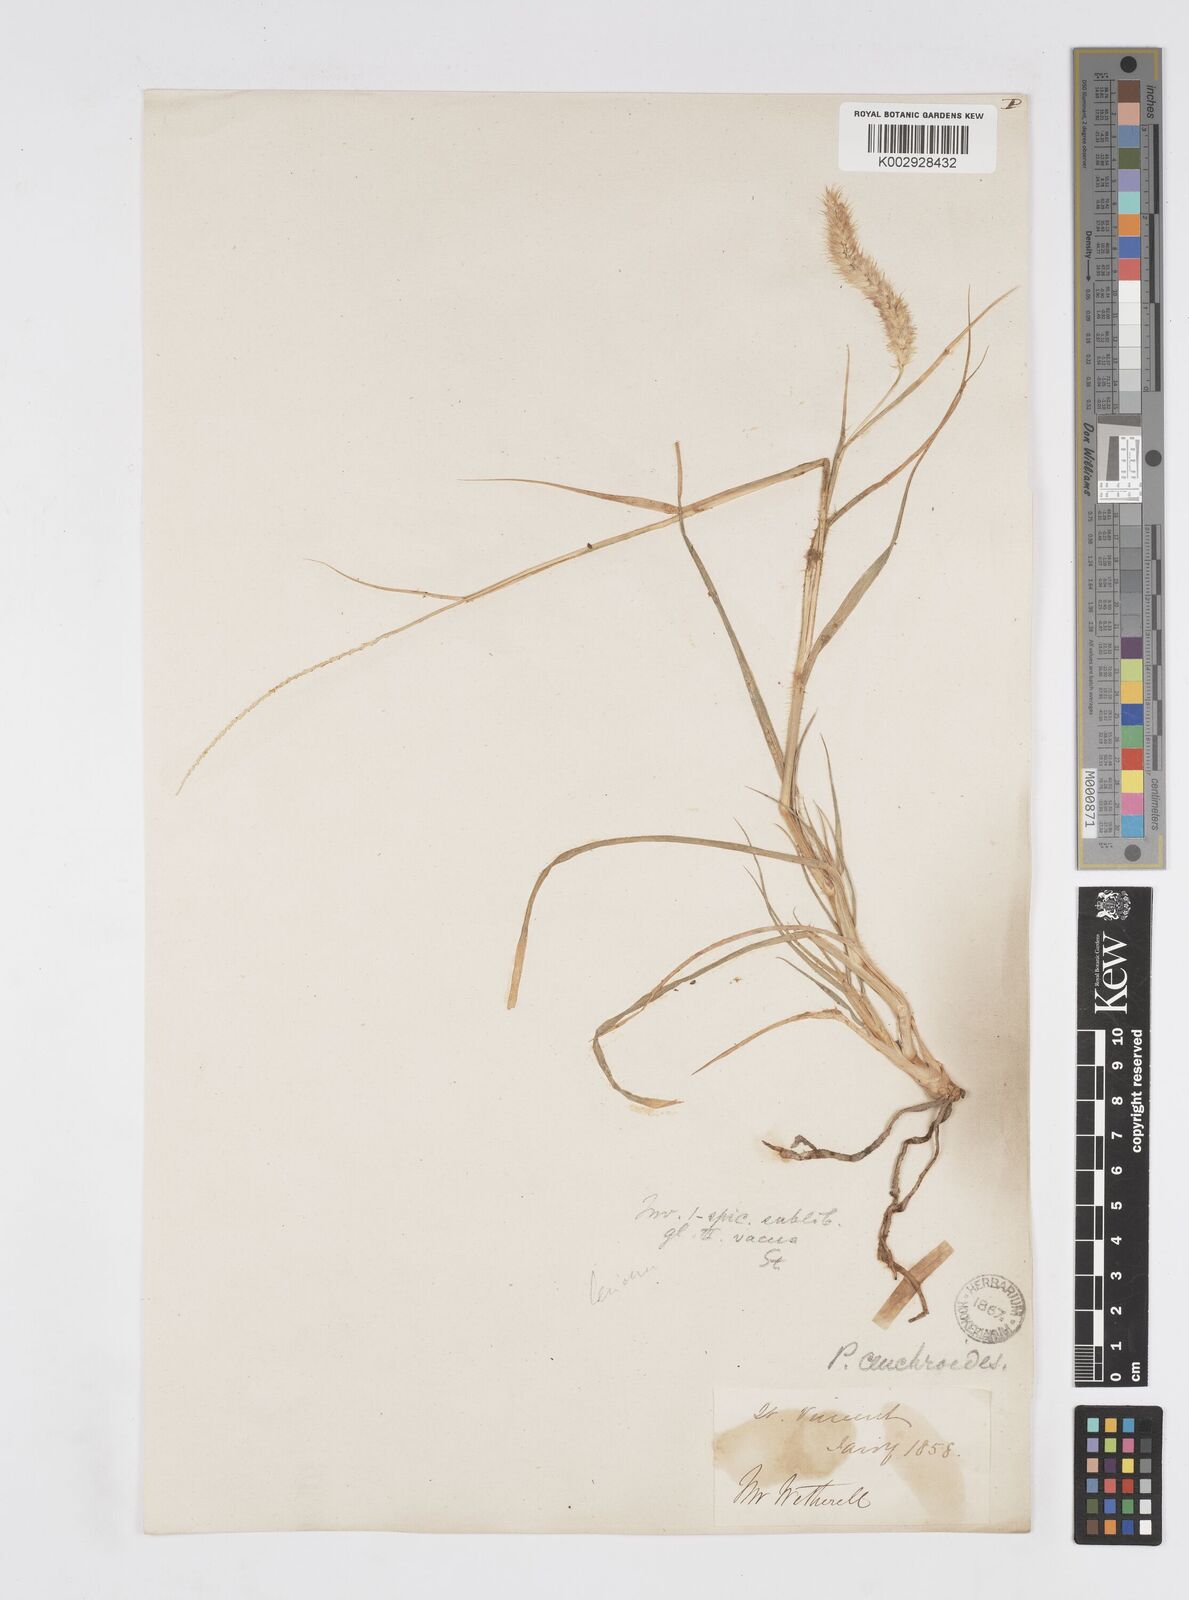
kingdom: Plantae
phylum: Tracheophyta
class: Liliopsida
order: Poales
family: Poaceae
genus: Cenchrus
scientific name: Cenchrus ciliaris
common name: Buffelgrass
